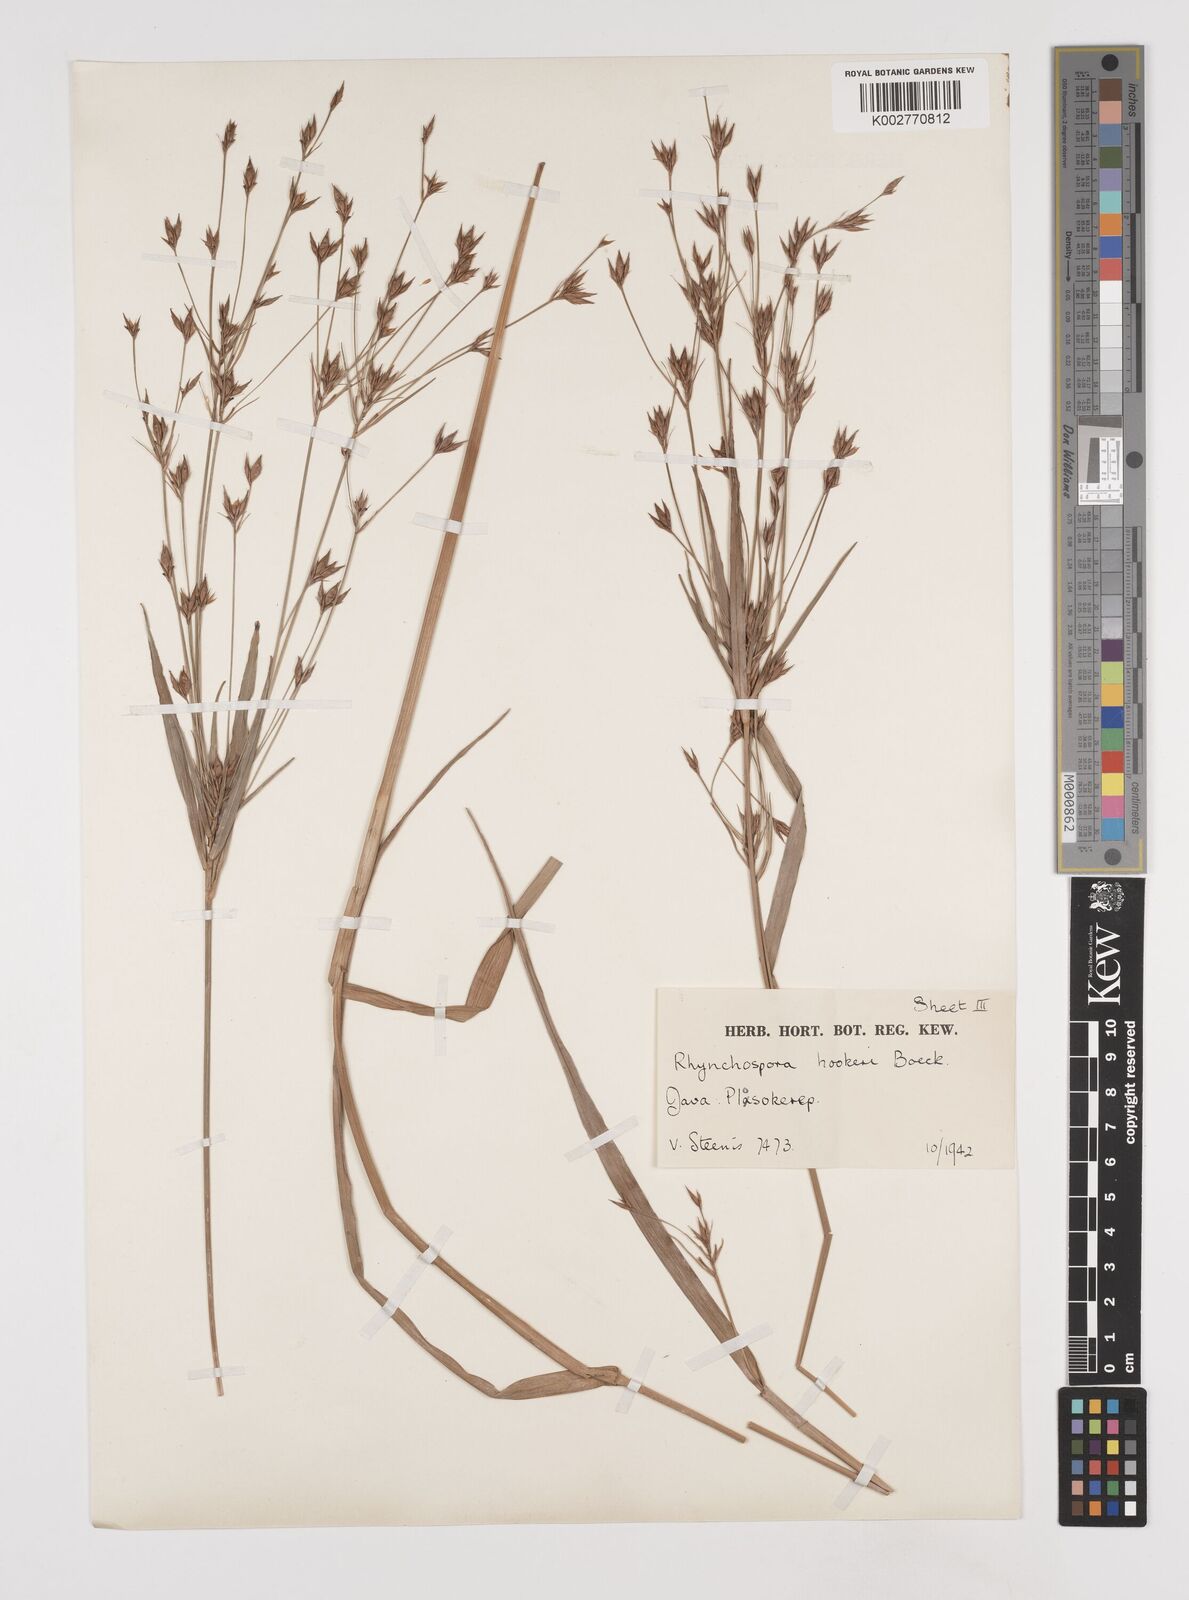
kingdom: Plantae
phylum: Tracheophyta
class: Liliopsida
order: Poales
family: Cyperaceae
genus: Rhynchospora
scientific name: Rhynchospora hookeri
